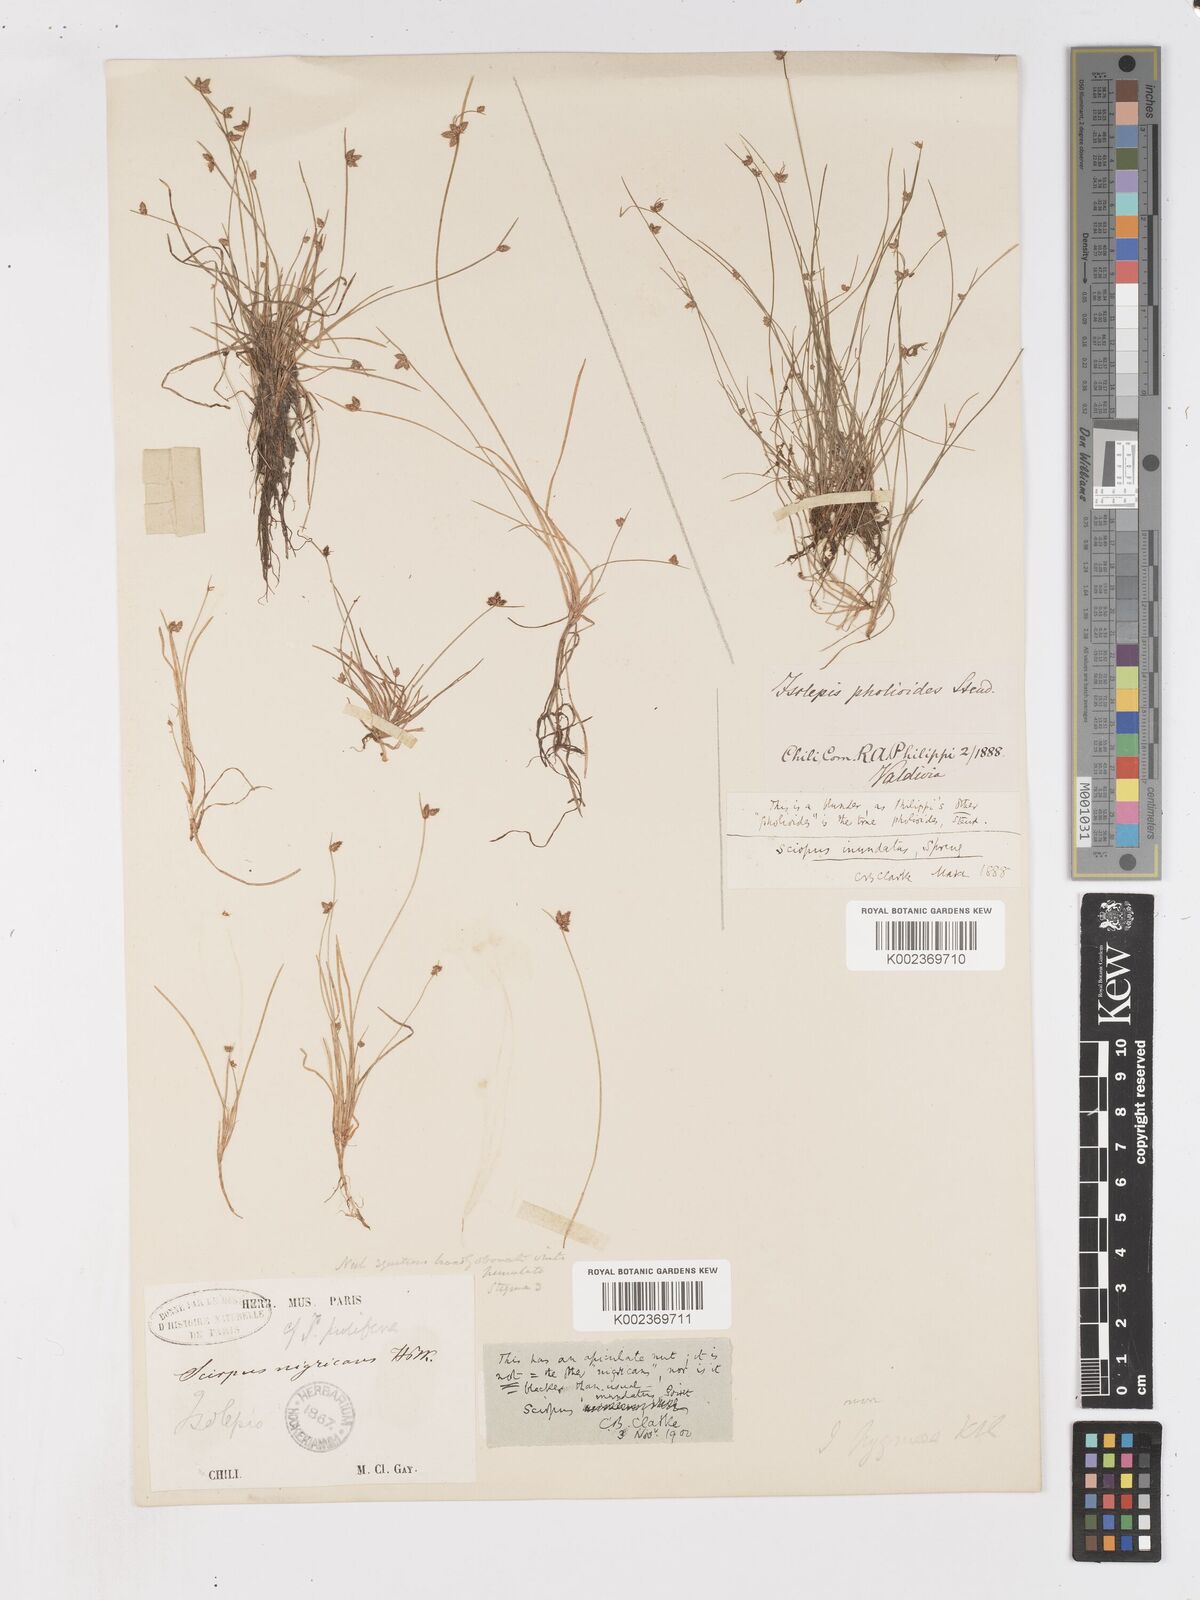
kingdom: Plantae
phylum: Tracheophyta
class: Liliopsida
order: Poales
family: Cyperaceae
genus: Isolepis
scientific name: Isolepis inundata
